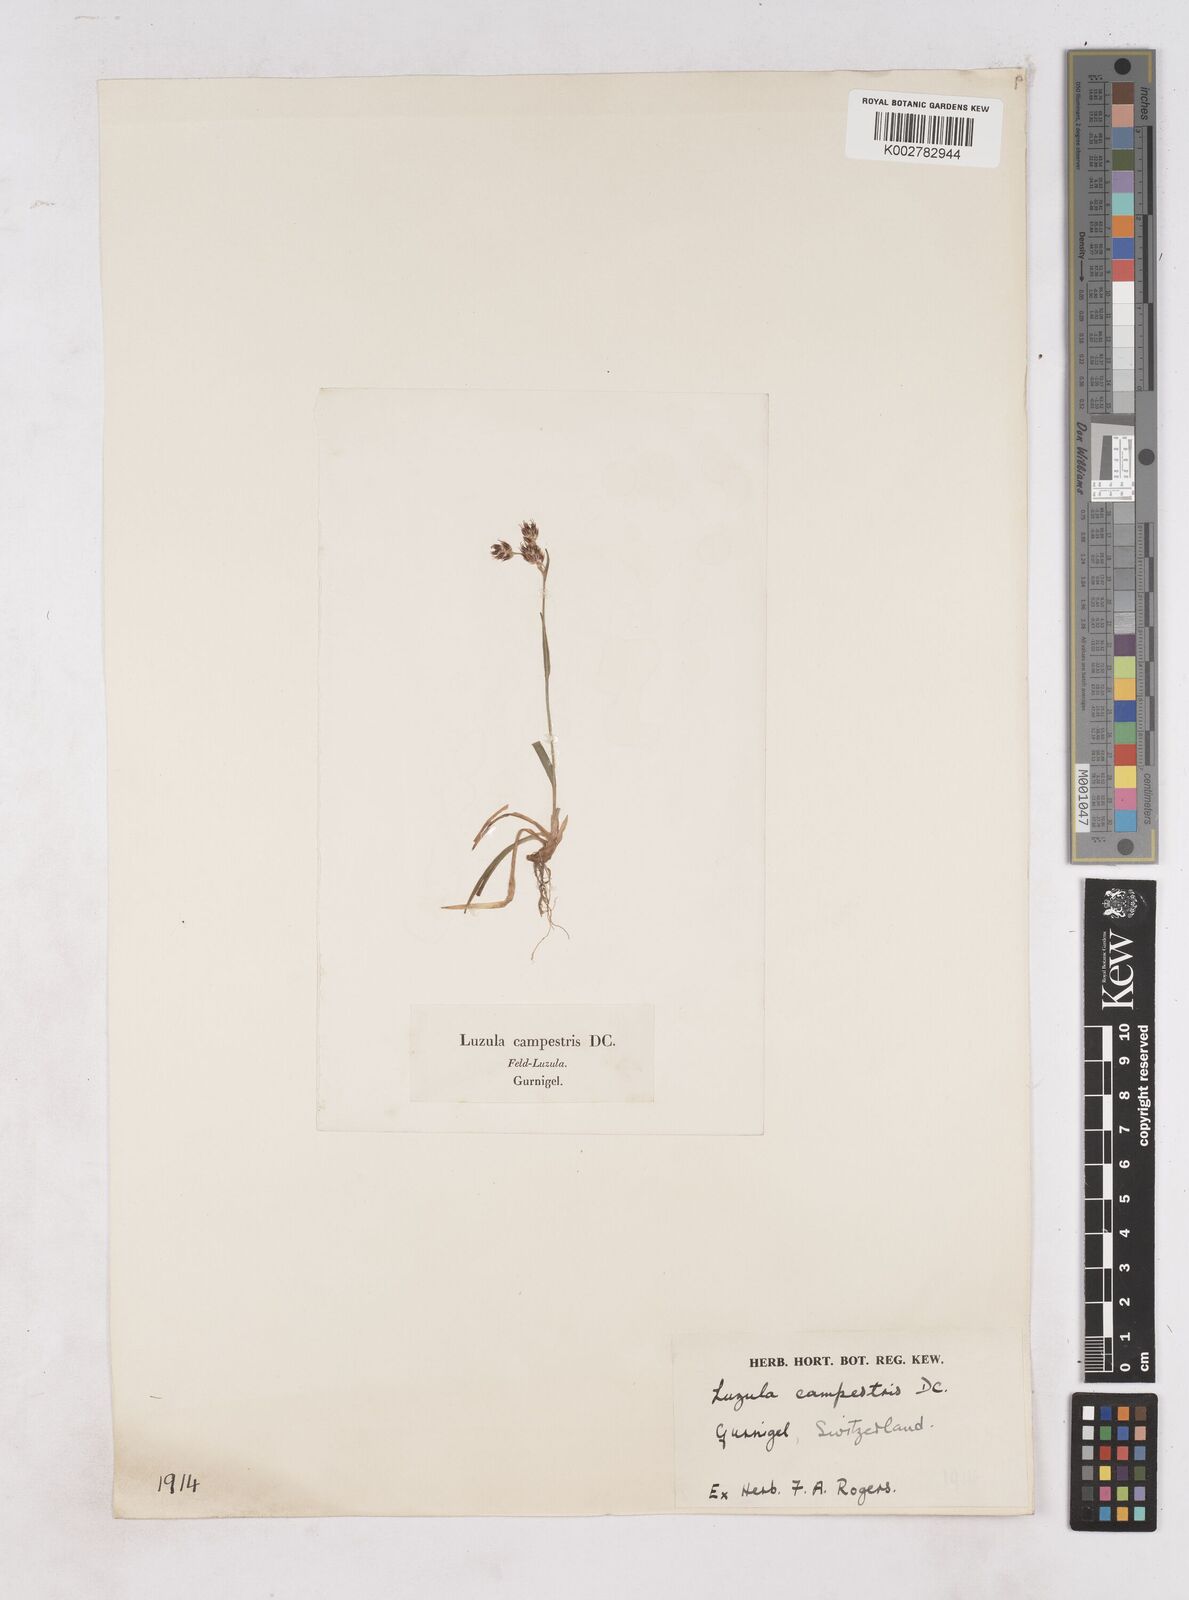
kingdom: Plantae
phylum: Tracheophyta
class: Liliopsida
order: Poales
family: Juncaceae
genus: Luzula
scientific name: Luzula campestris
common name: Field wood-rush
